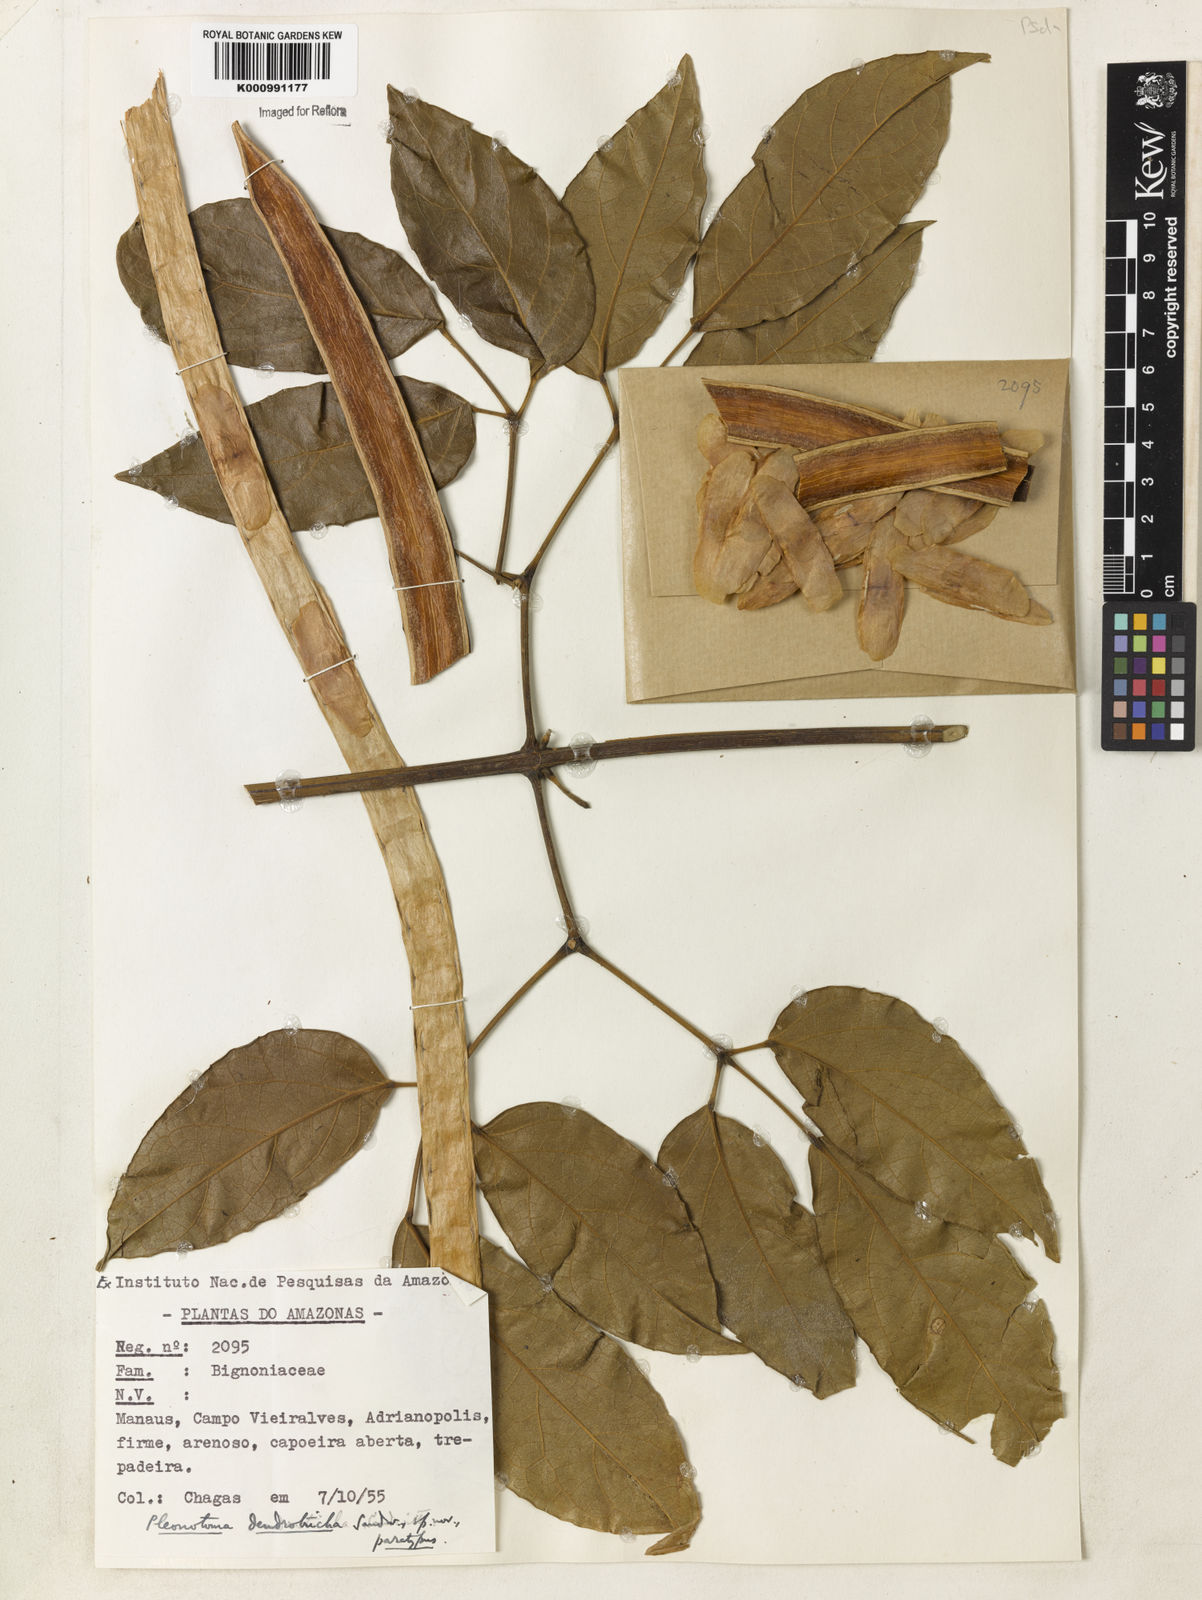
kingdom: Plantae
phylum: Tracheophyta
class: Magnoliopsida
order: Lamiales
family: Bignoniaceae
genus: Pleonotoma
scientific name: Pleonotoma dendrotricha
